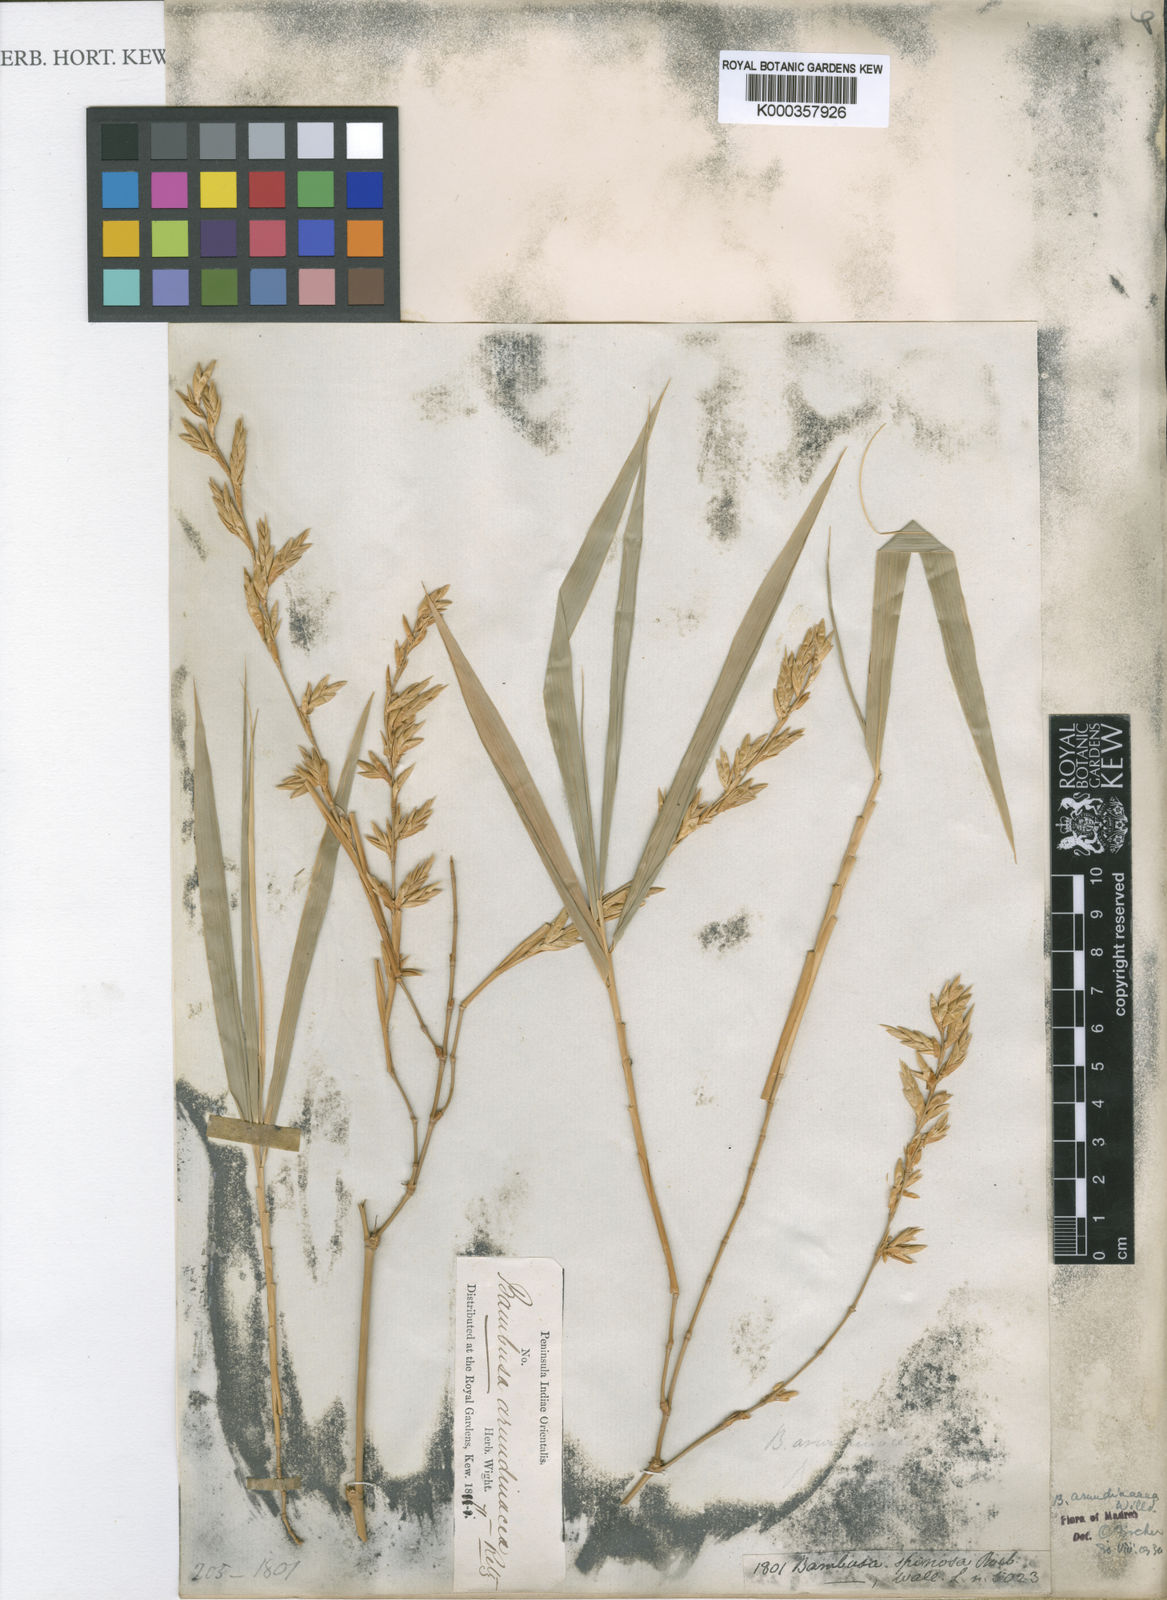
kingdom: Plantae
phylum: Tracheophyta
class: Liliopsida
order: Poales
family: Poaceae
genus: Bambusa
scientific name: Bambusa bambos
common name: Indian thorny bamboo
